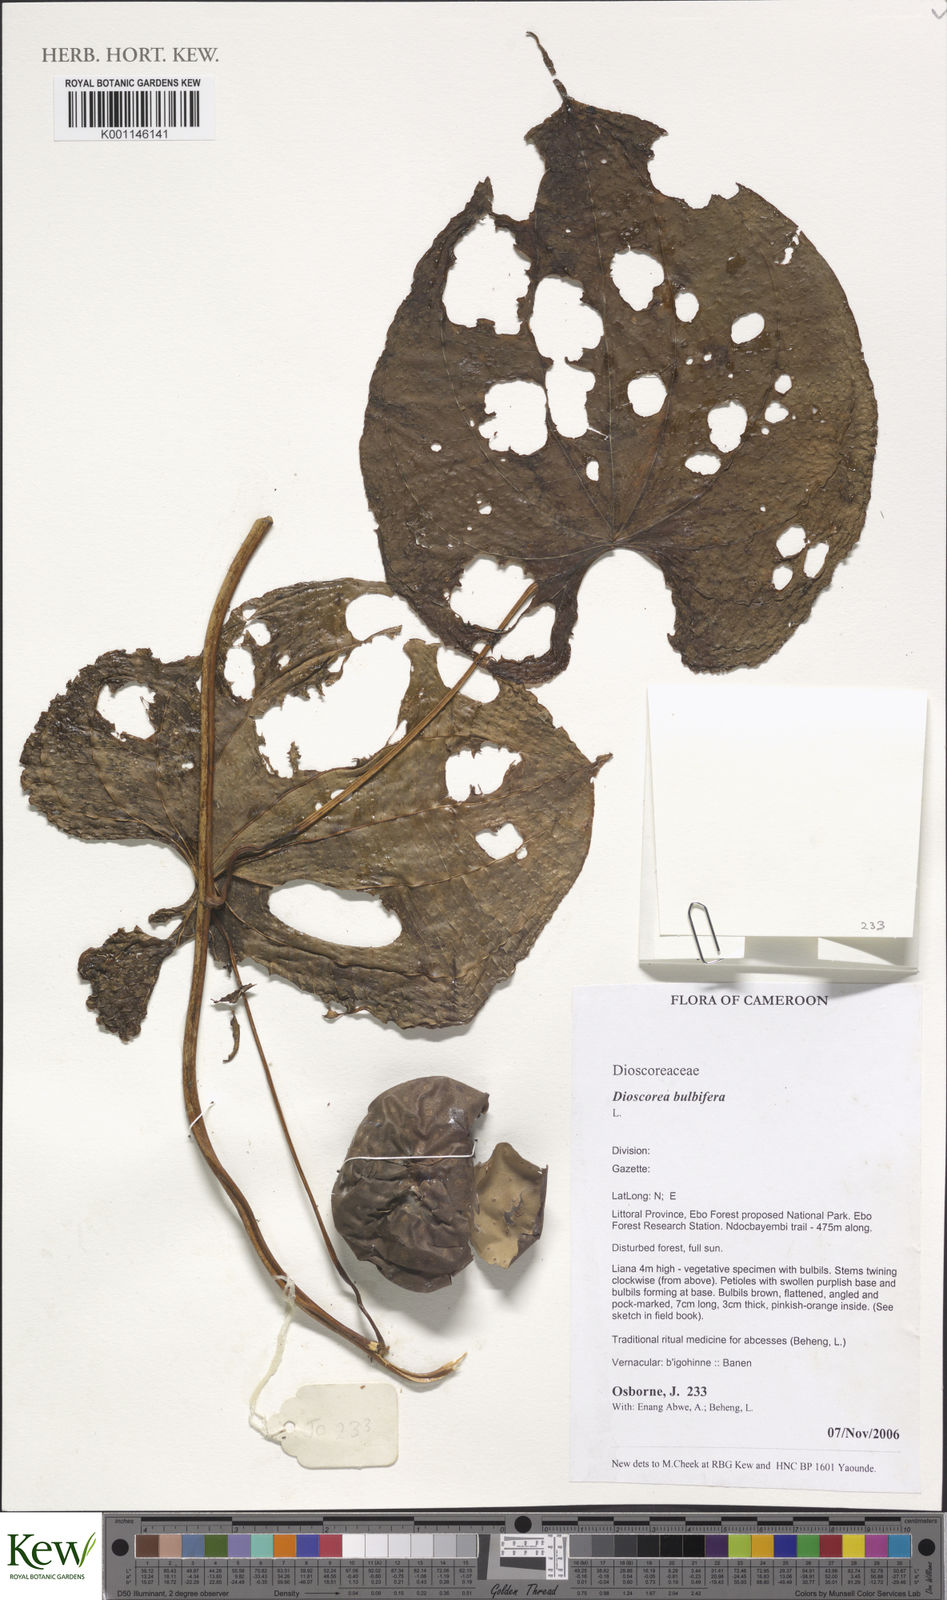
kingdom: Plantae
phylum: Tracheophyta
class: Liliopsida
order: Dioscoreales
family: Dioscoreaceae
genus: Dioscorea
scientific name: Dioscorea bulbifera
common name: Air yam
